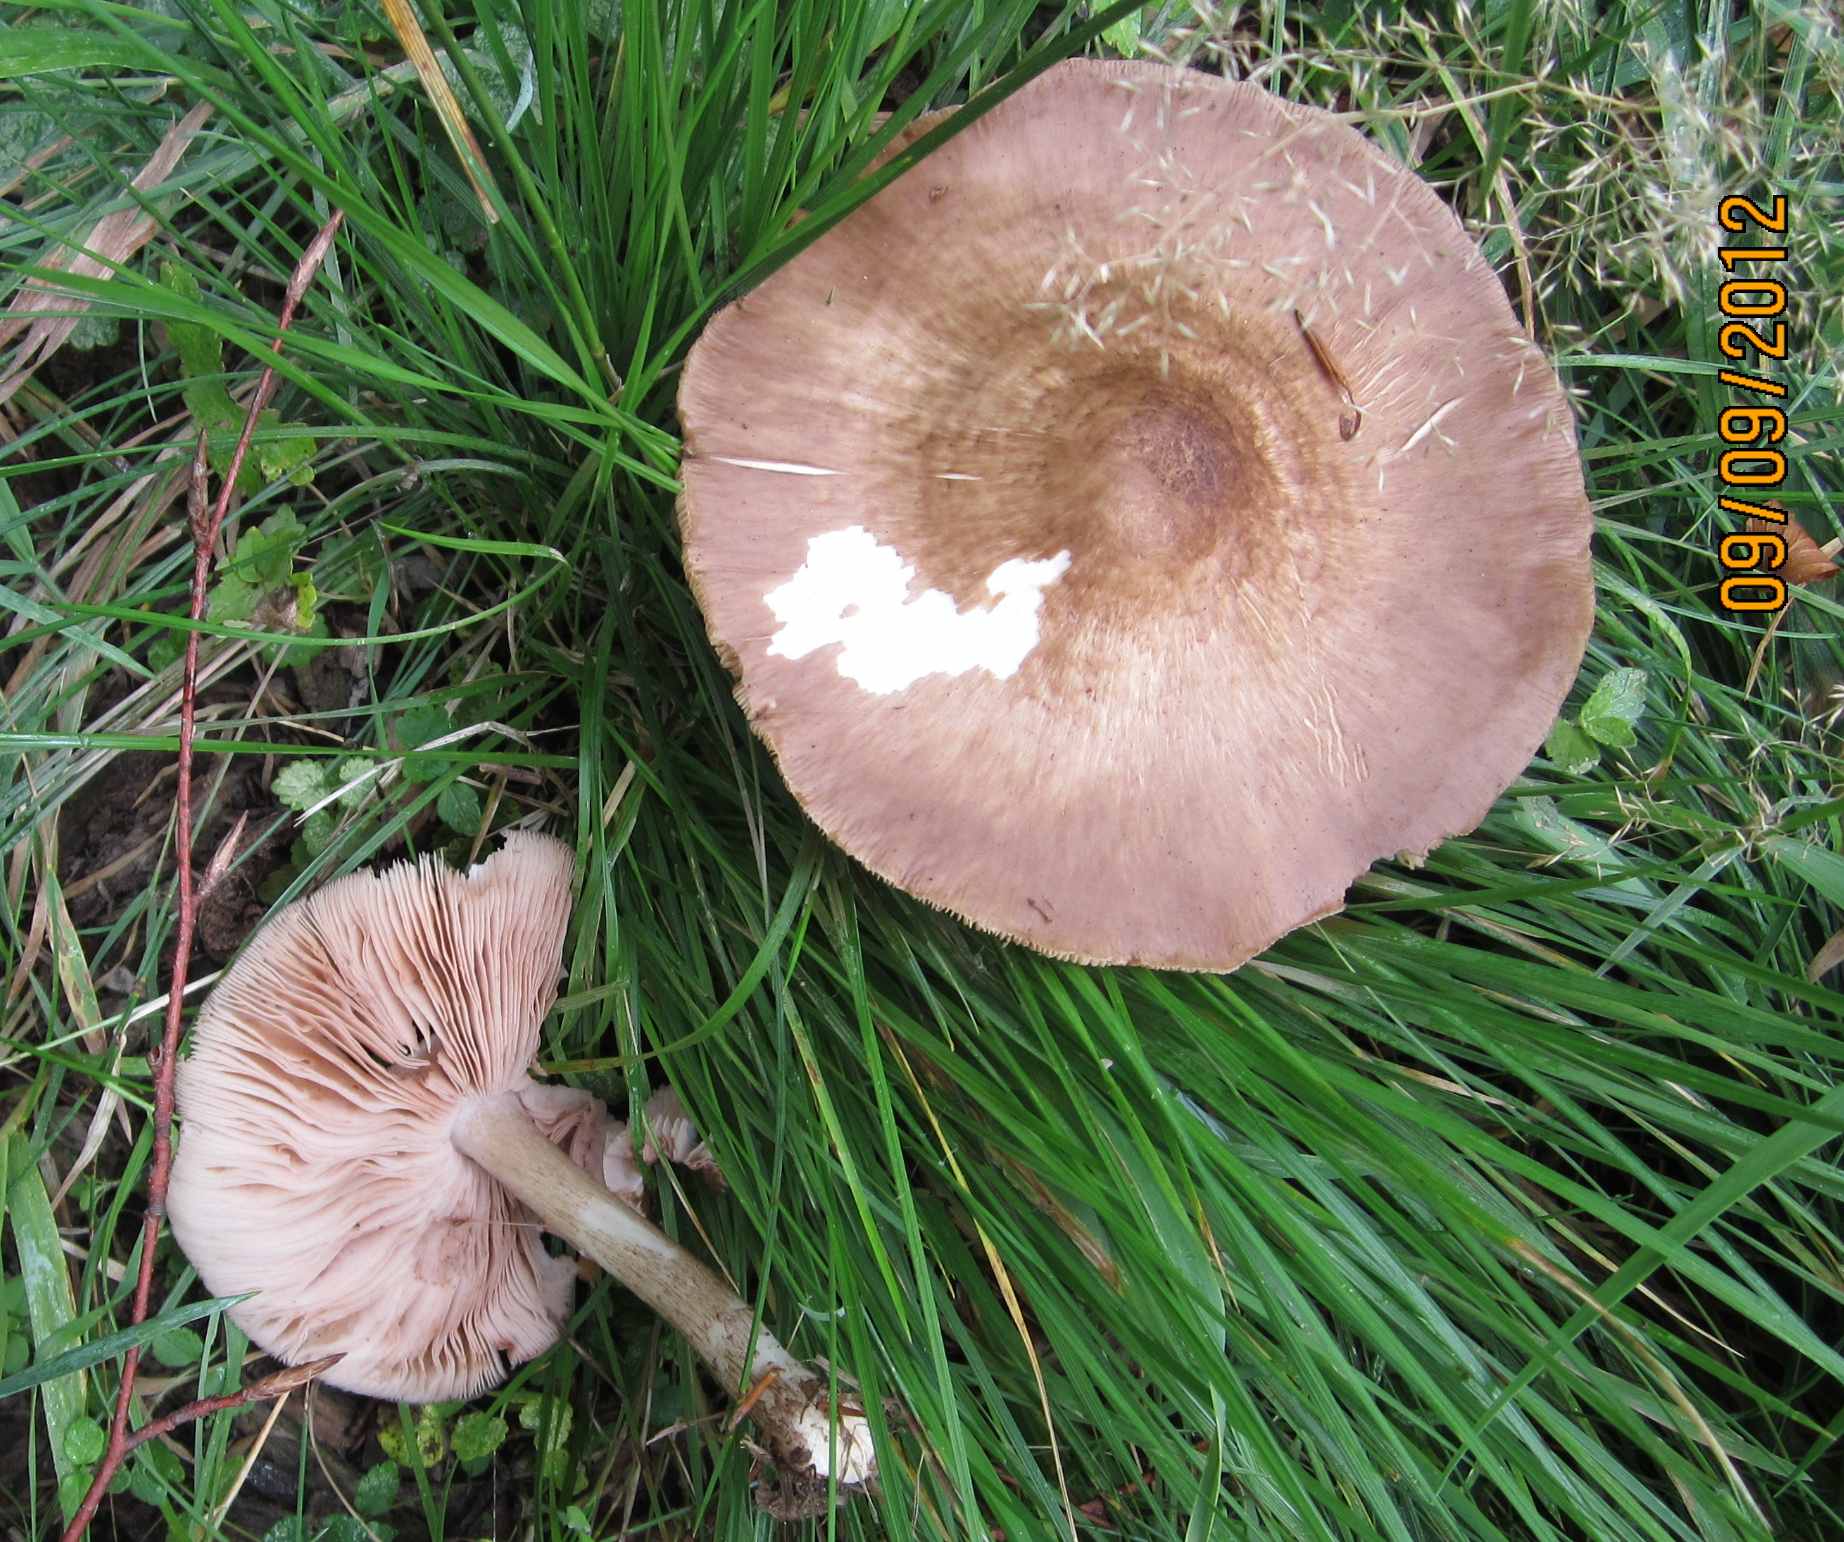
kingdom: Fungi
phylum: Basidiomycota
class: Agaricomycetes
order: Agaricales
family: Pluteaceae
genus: Pluteus
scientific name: Pluteus cervinus
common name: sodfarvet skærmhat
